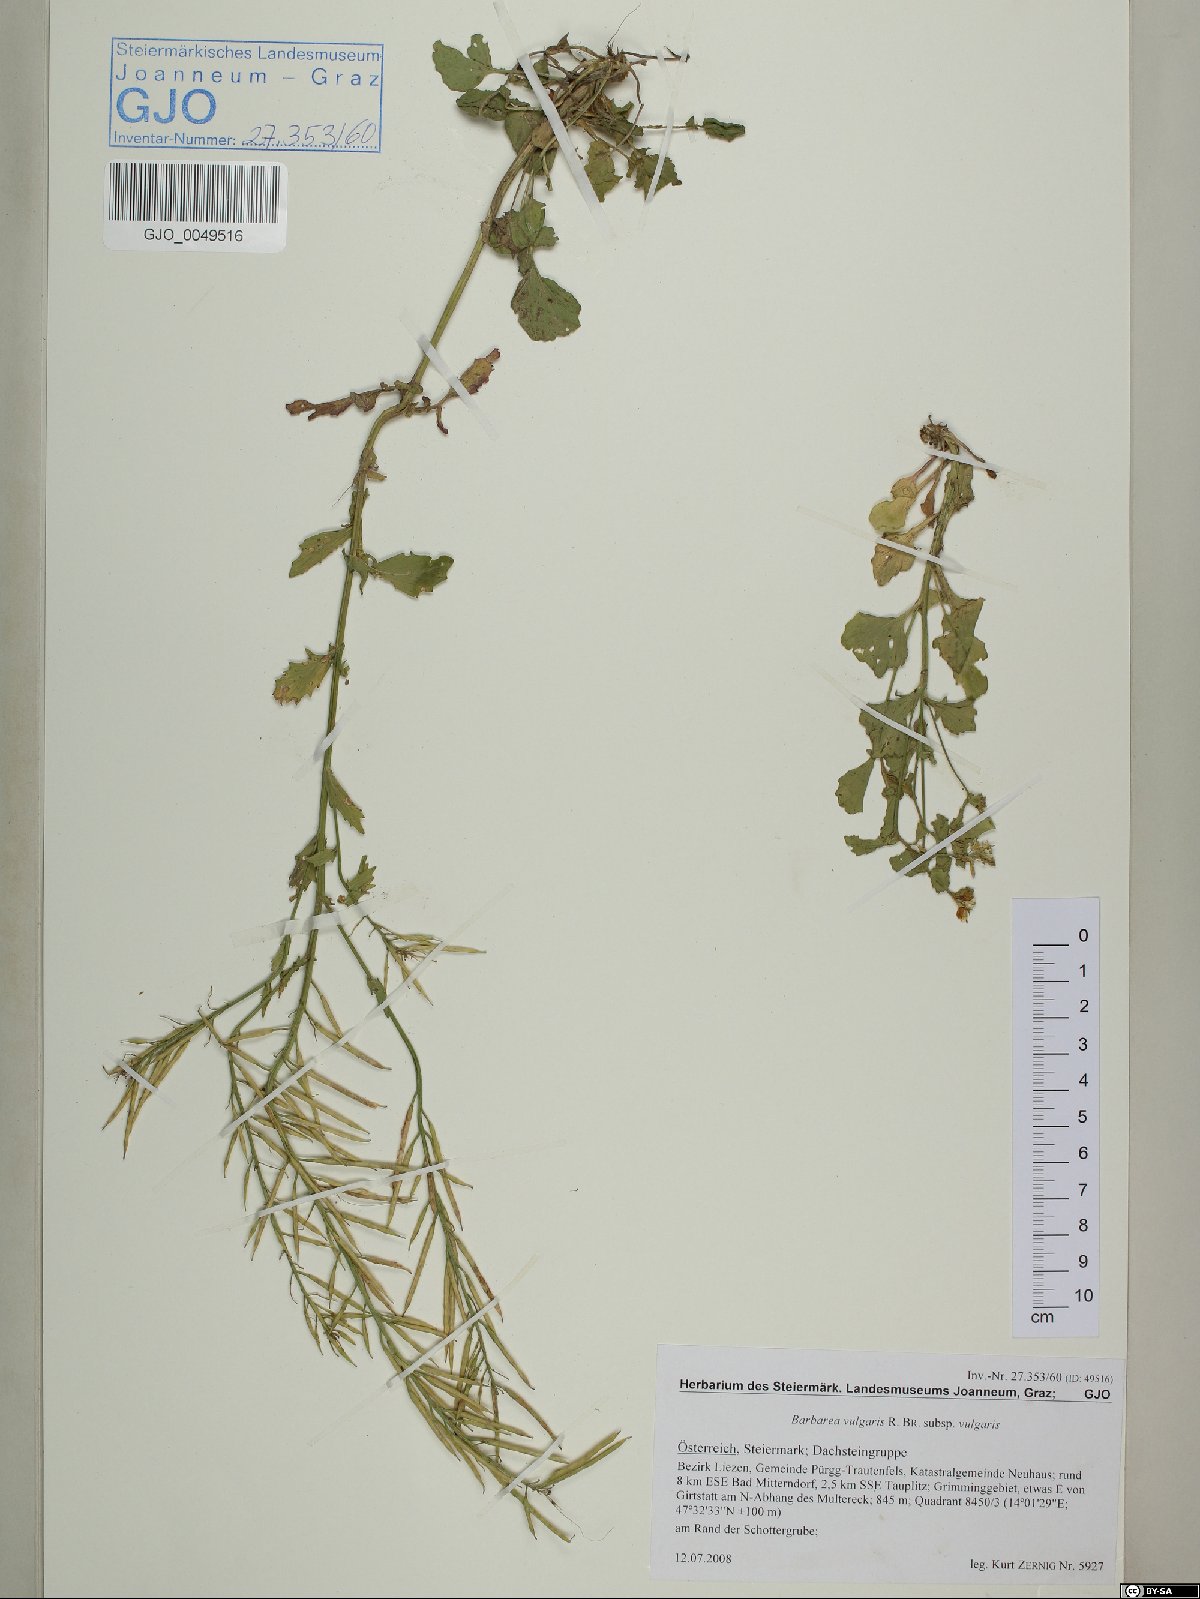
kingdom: Plantae
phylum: Tracheophyta
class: Magnoliopsida
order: Brassicales
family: Brassicaceae
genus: Barbarea
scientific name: Barbarea vulgaris
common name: Cressy-greens
